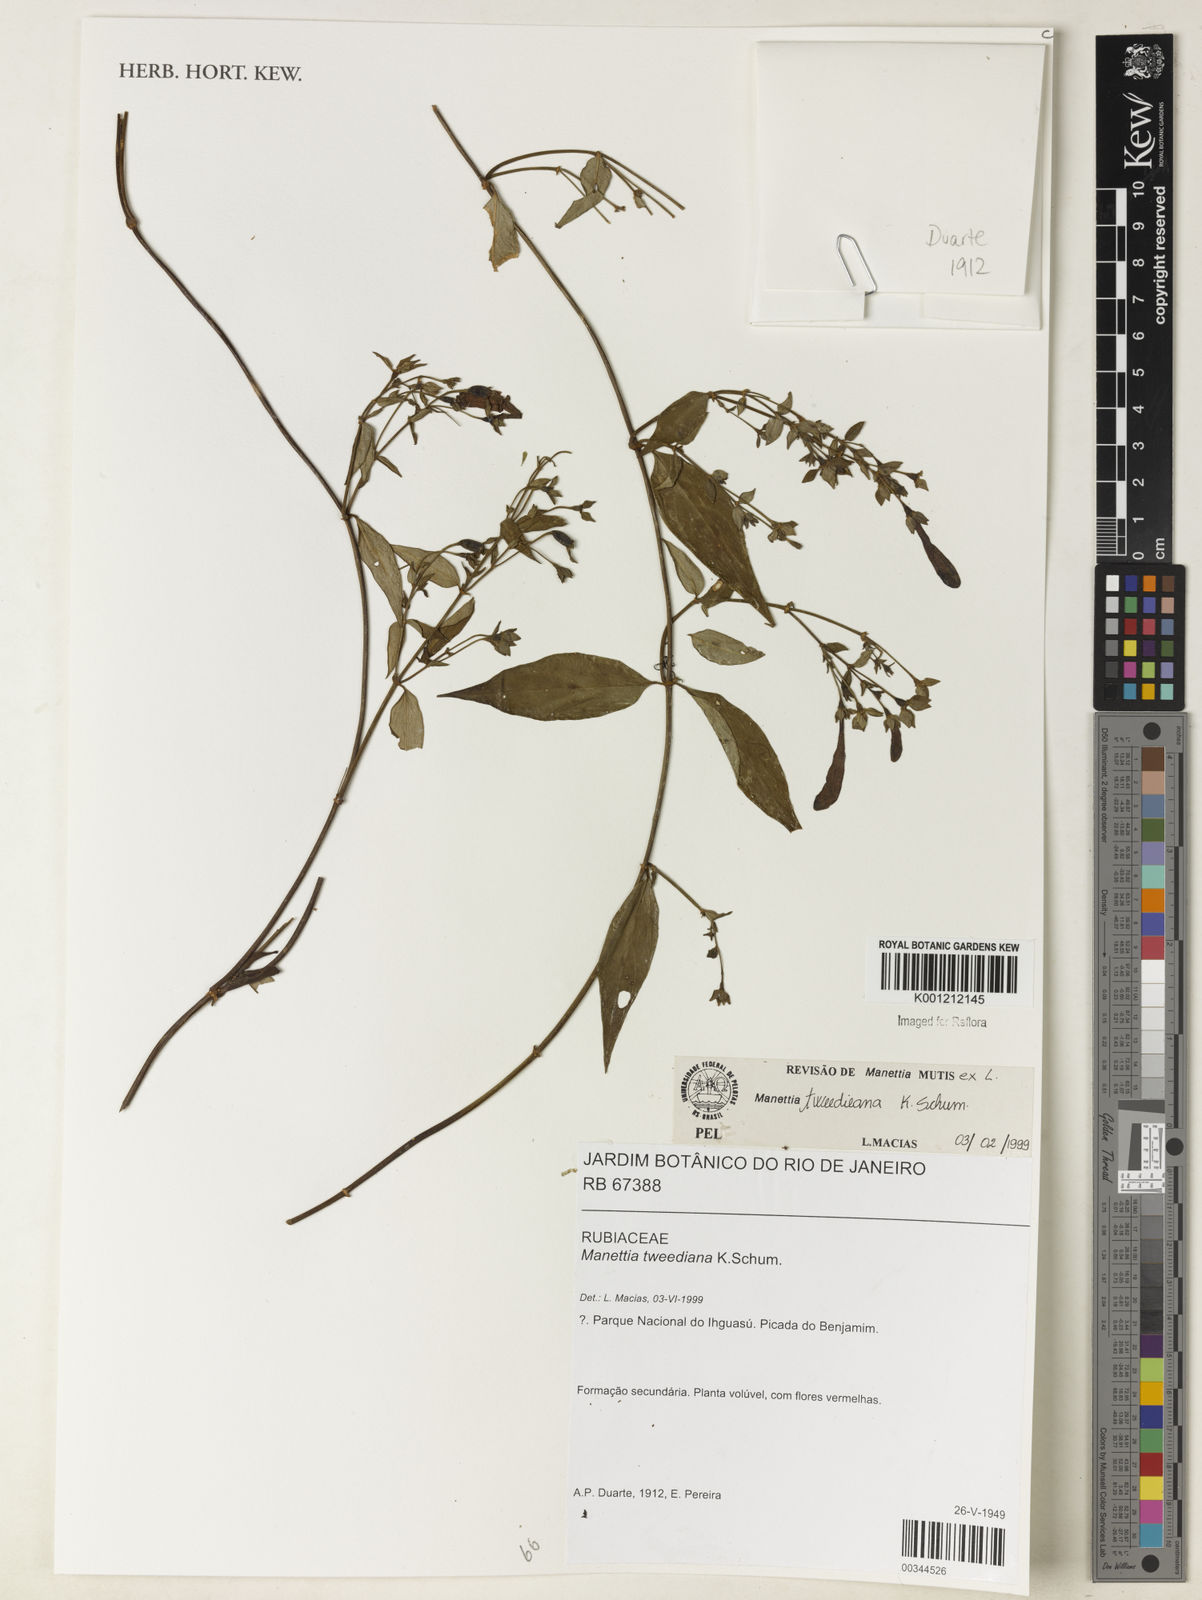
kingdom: Plantae
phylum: Tracheophyta
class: Magnoliopsida
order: Gentianales
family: Rubiaceae
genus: Manettia
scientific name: Manettia tweedieana
